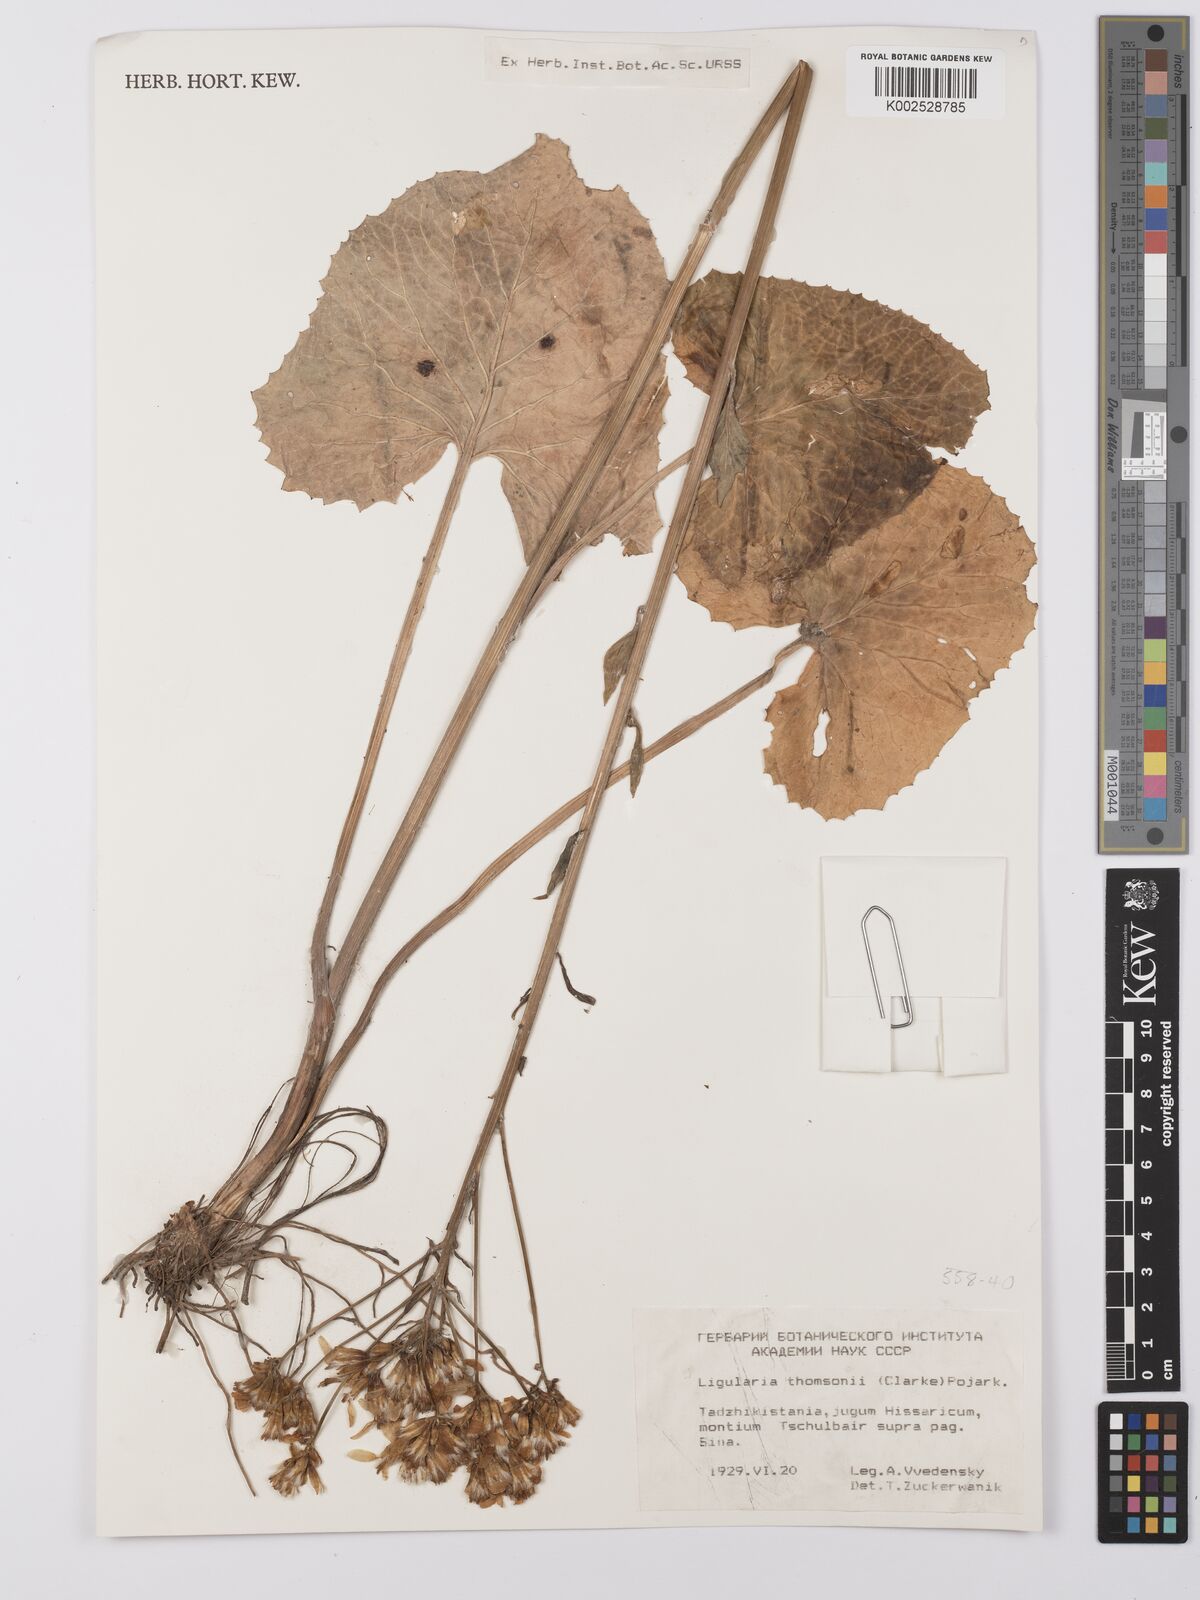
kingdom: Plantae
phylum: Tracheophyta
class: Magnoliopsida
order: Asterales
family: Asteraceae
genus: Vickifunkia
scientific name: Vickifunkia thomsonii
